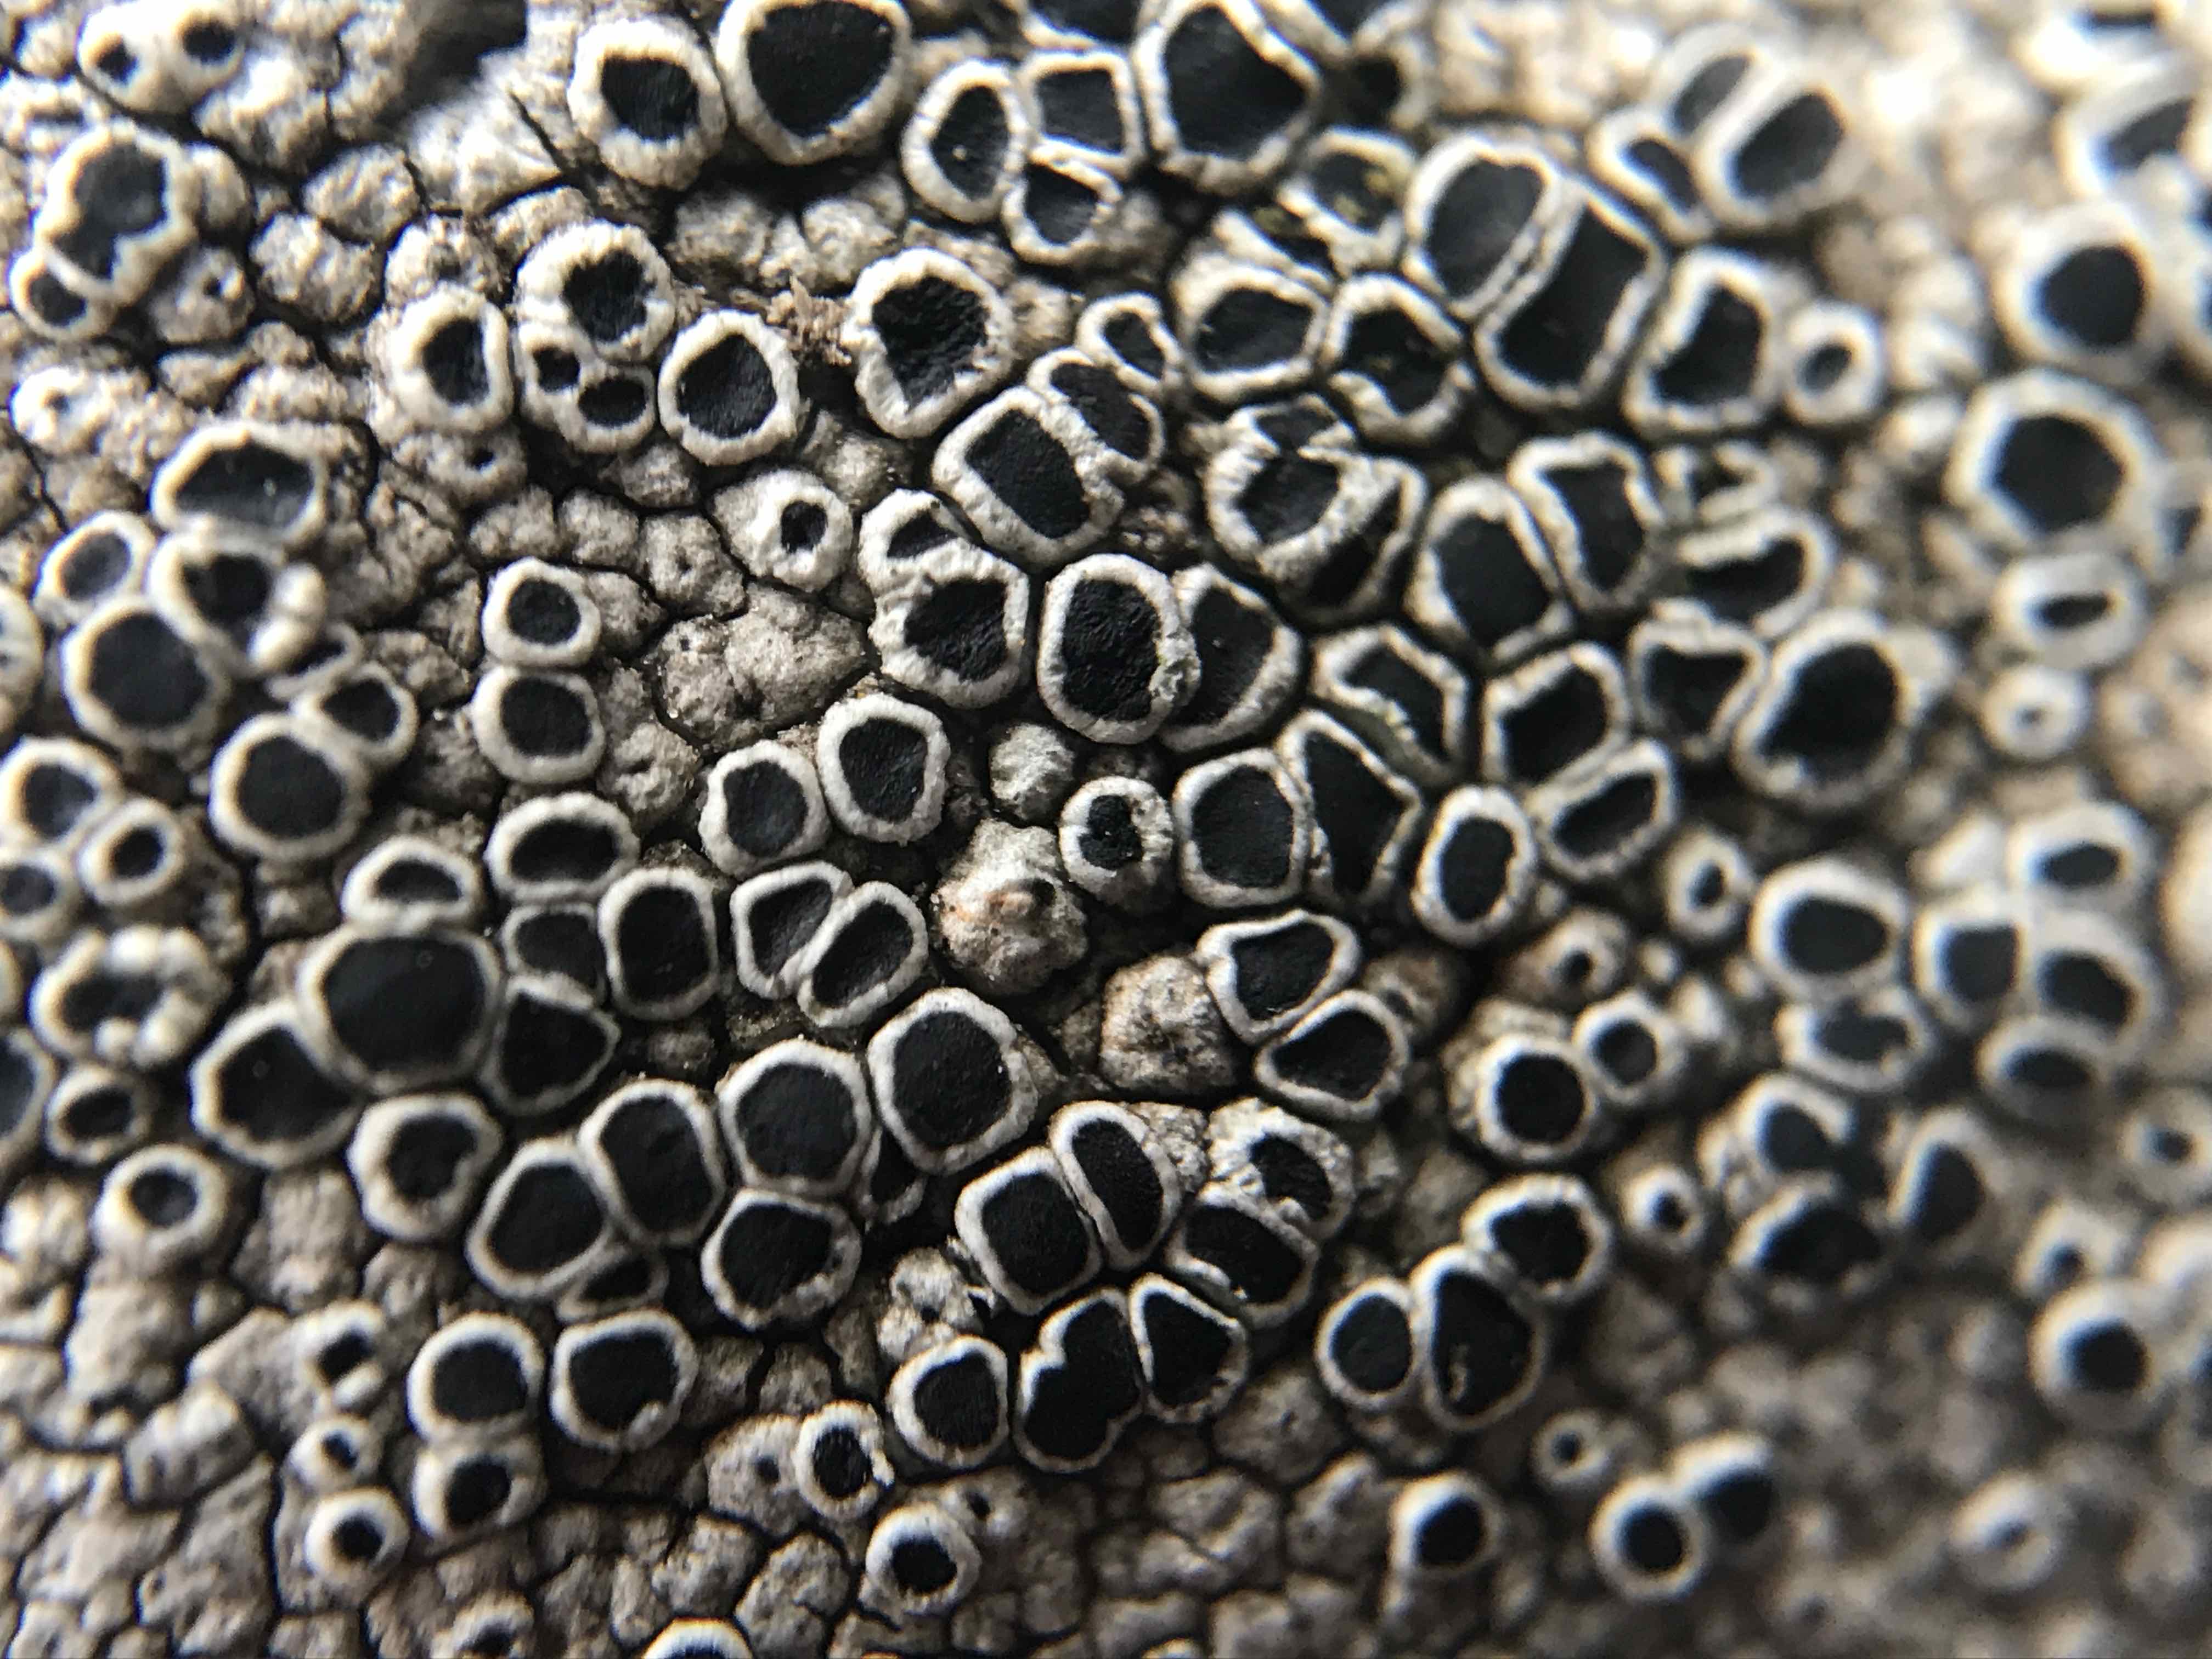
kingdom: Fungi
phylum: Ascomycota
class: Lecanoromycetes
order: Lecanorales
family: Tephromelataceae
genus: Tephromela
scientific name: Tephromela atra
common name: sortfrugtet kantskivelav
